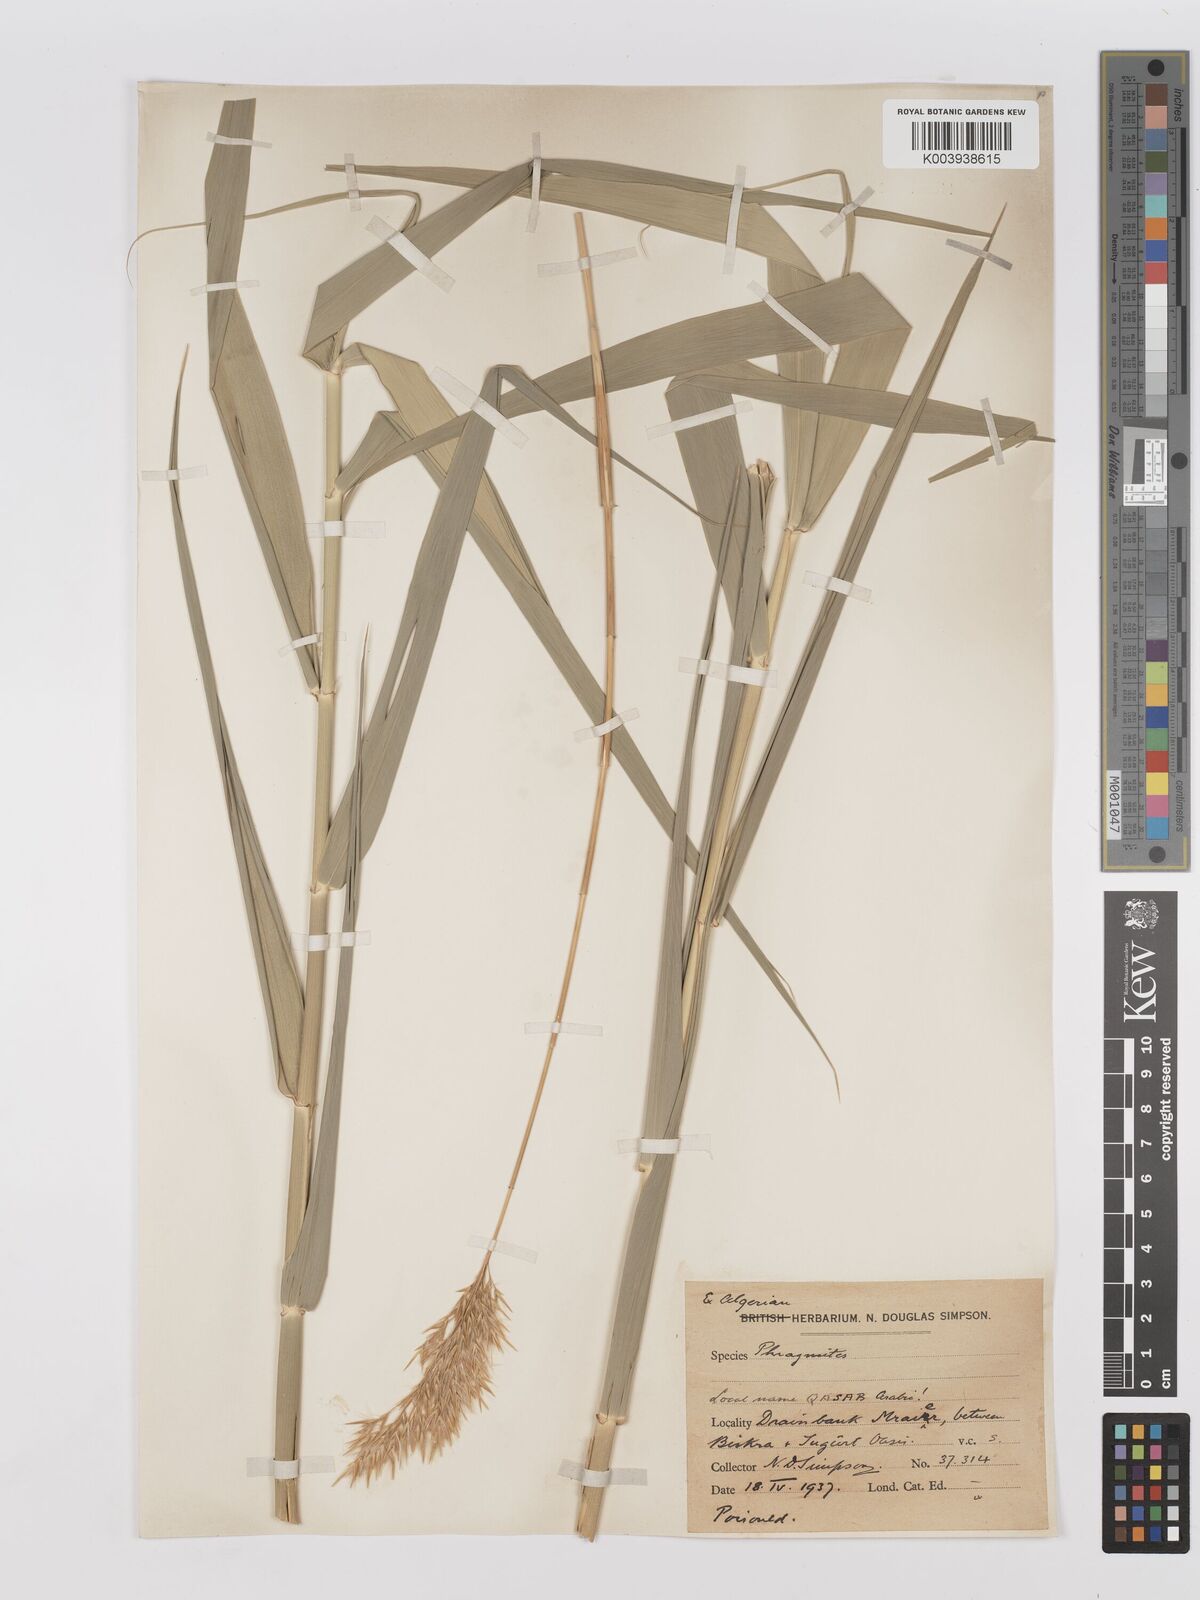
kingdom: Plantae
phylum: Tracheophyta
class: Liliopsida
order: Poales
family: Poaceae
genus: Phragmites
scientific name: Phragmites australis
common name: Common reed
